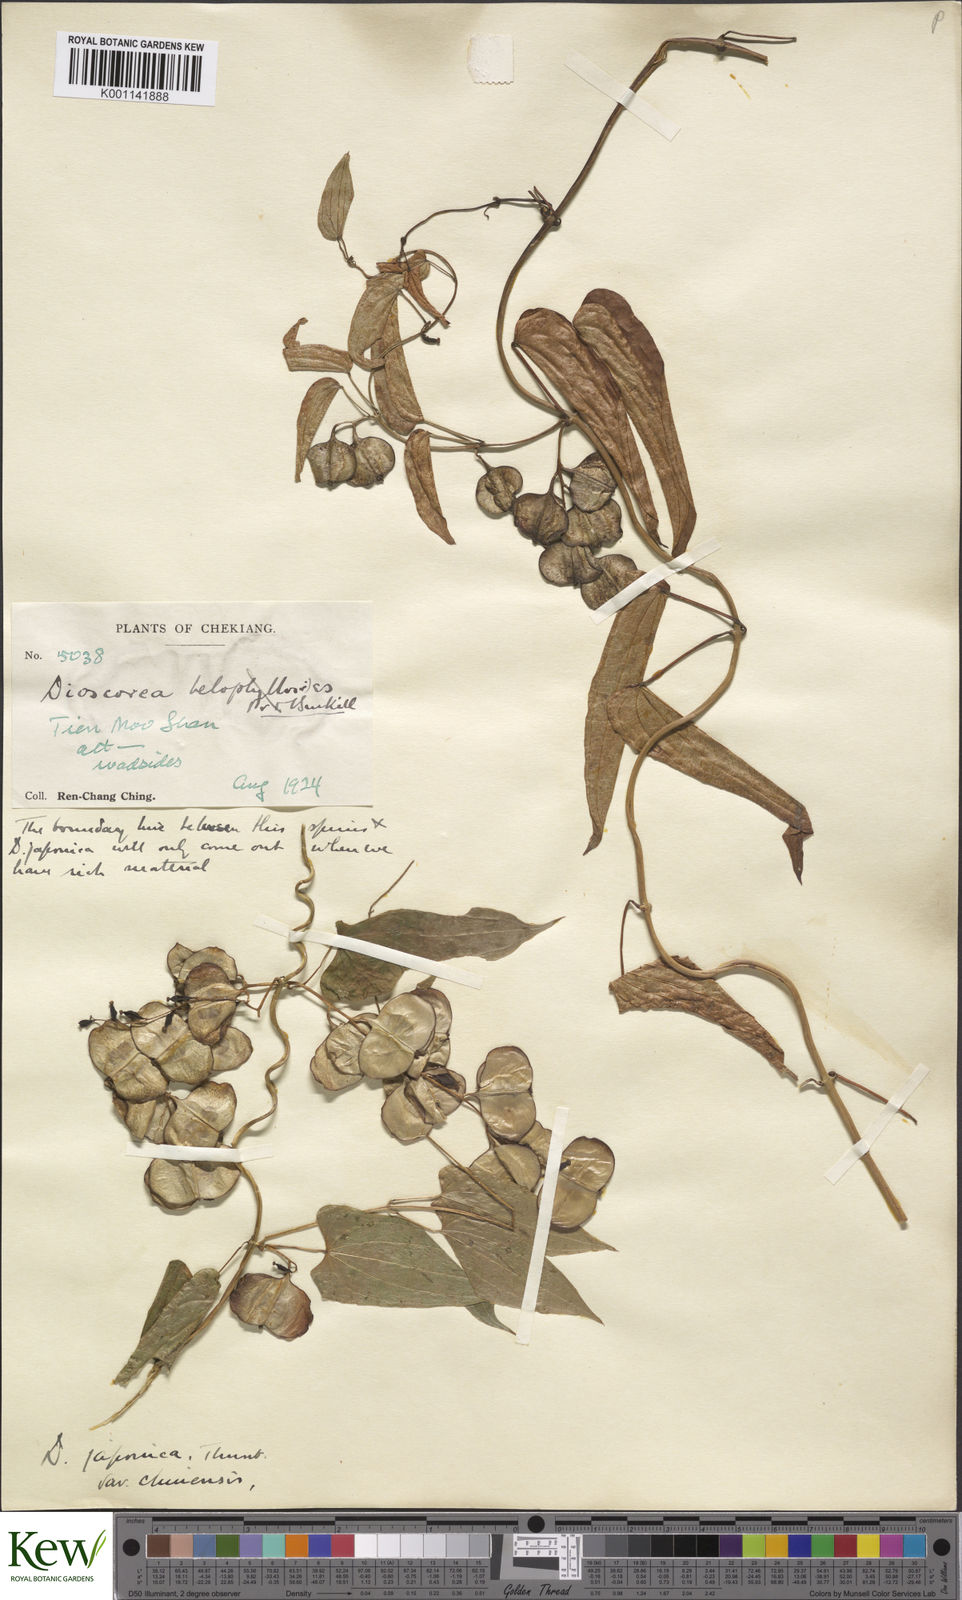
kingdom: Plantae
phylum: Tracheophyta
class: Liliopsida
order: Dioscoreales
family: Dioscoreaceae
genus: Dioscorea
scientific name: Dioscorea japonica
